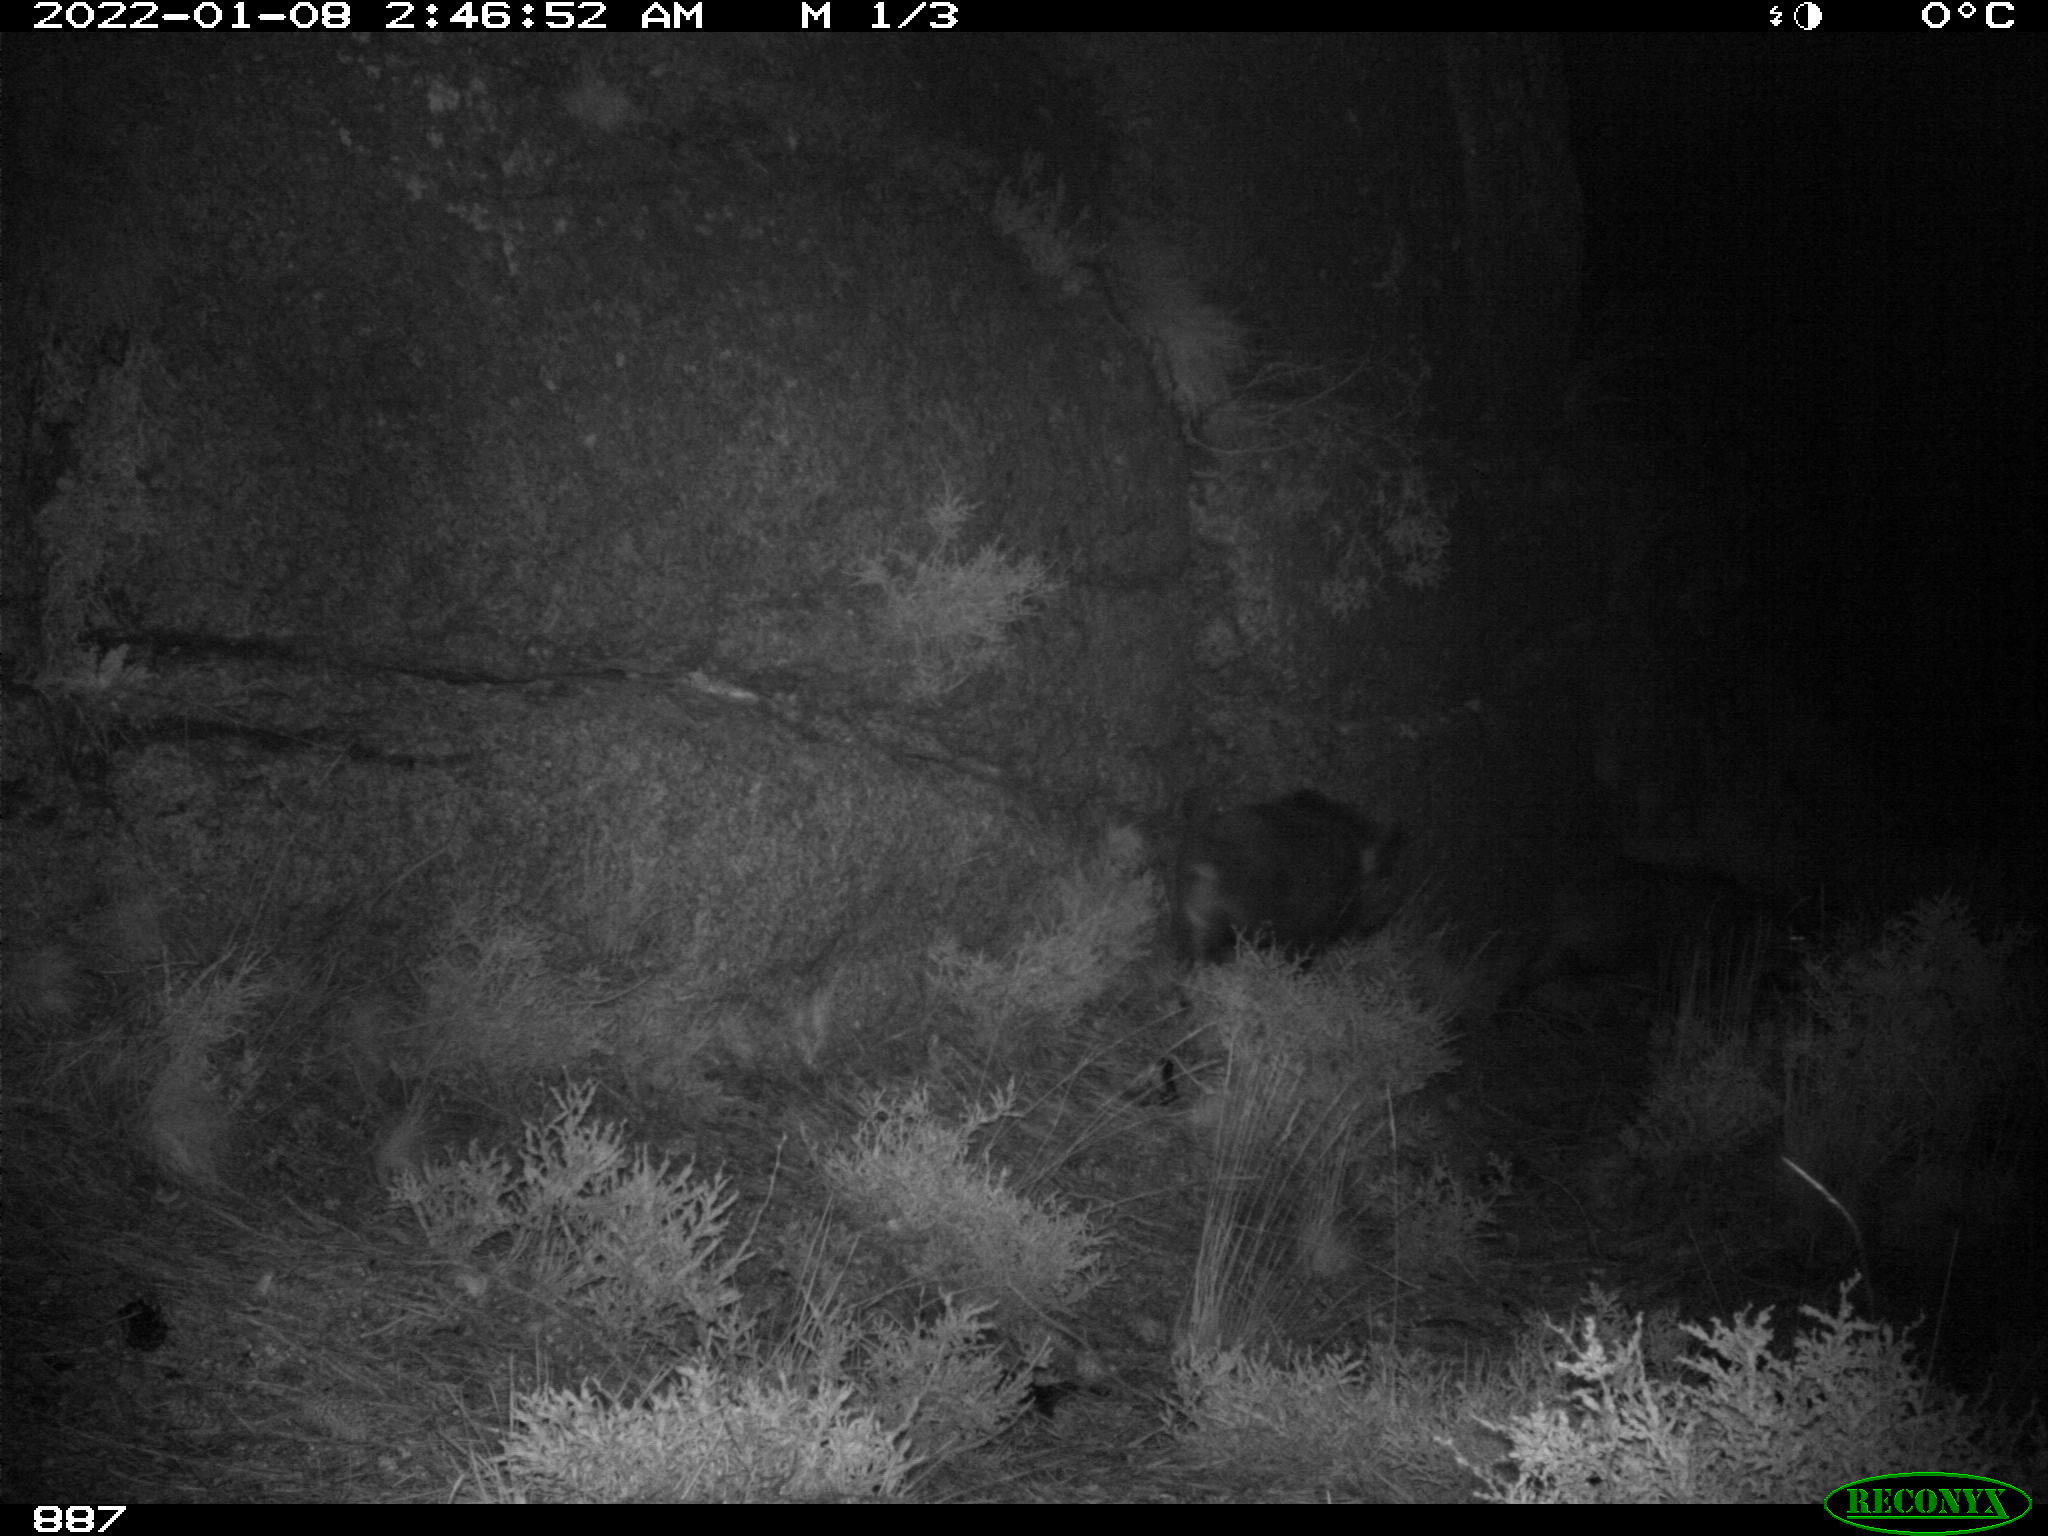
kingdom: Animalia
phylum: Chordata
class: Mammalia
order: Artiodactyla
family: Suidae
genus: Sus
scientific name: Sus scrofa
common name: Wild boar
